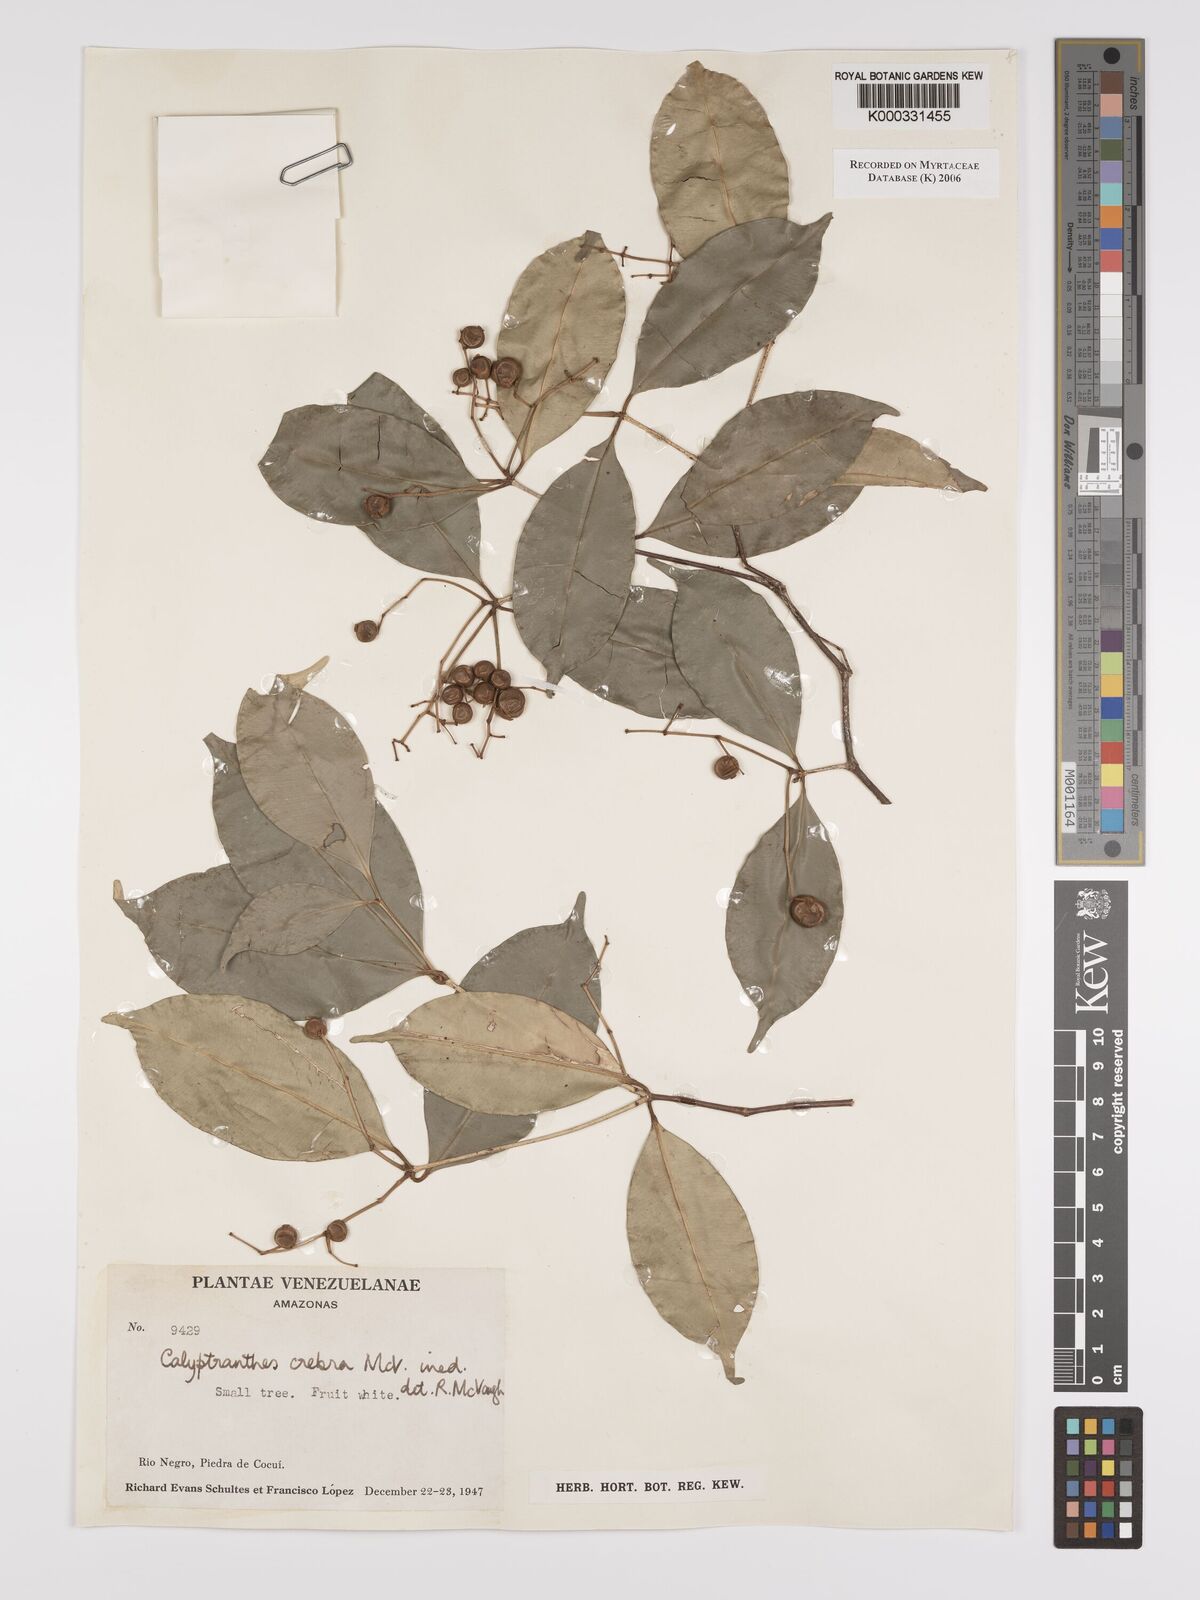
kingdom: Plantae
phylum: Tracheophyta
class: Magnoliopsida
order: Myrtales
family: Myrtaceae
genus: Calyptranthes
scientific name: Calyptranthes
